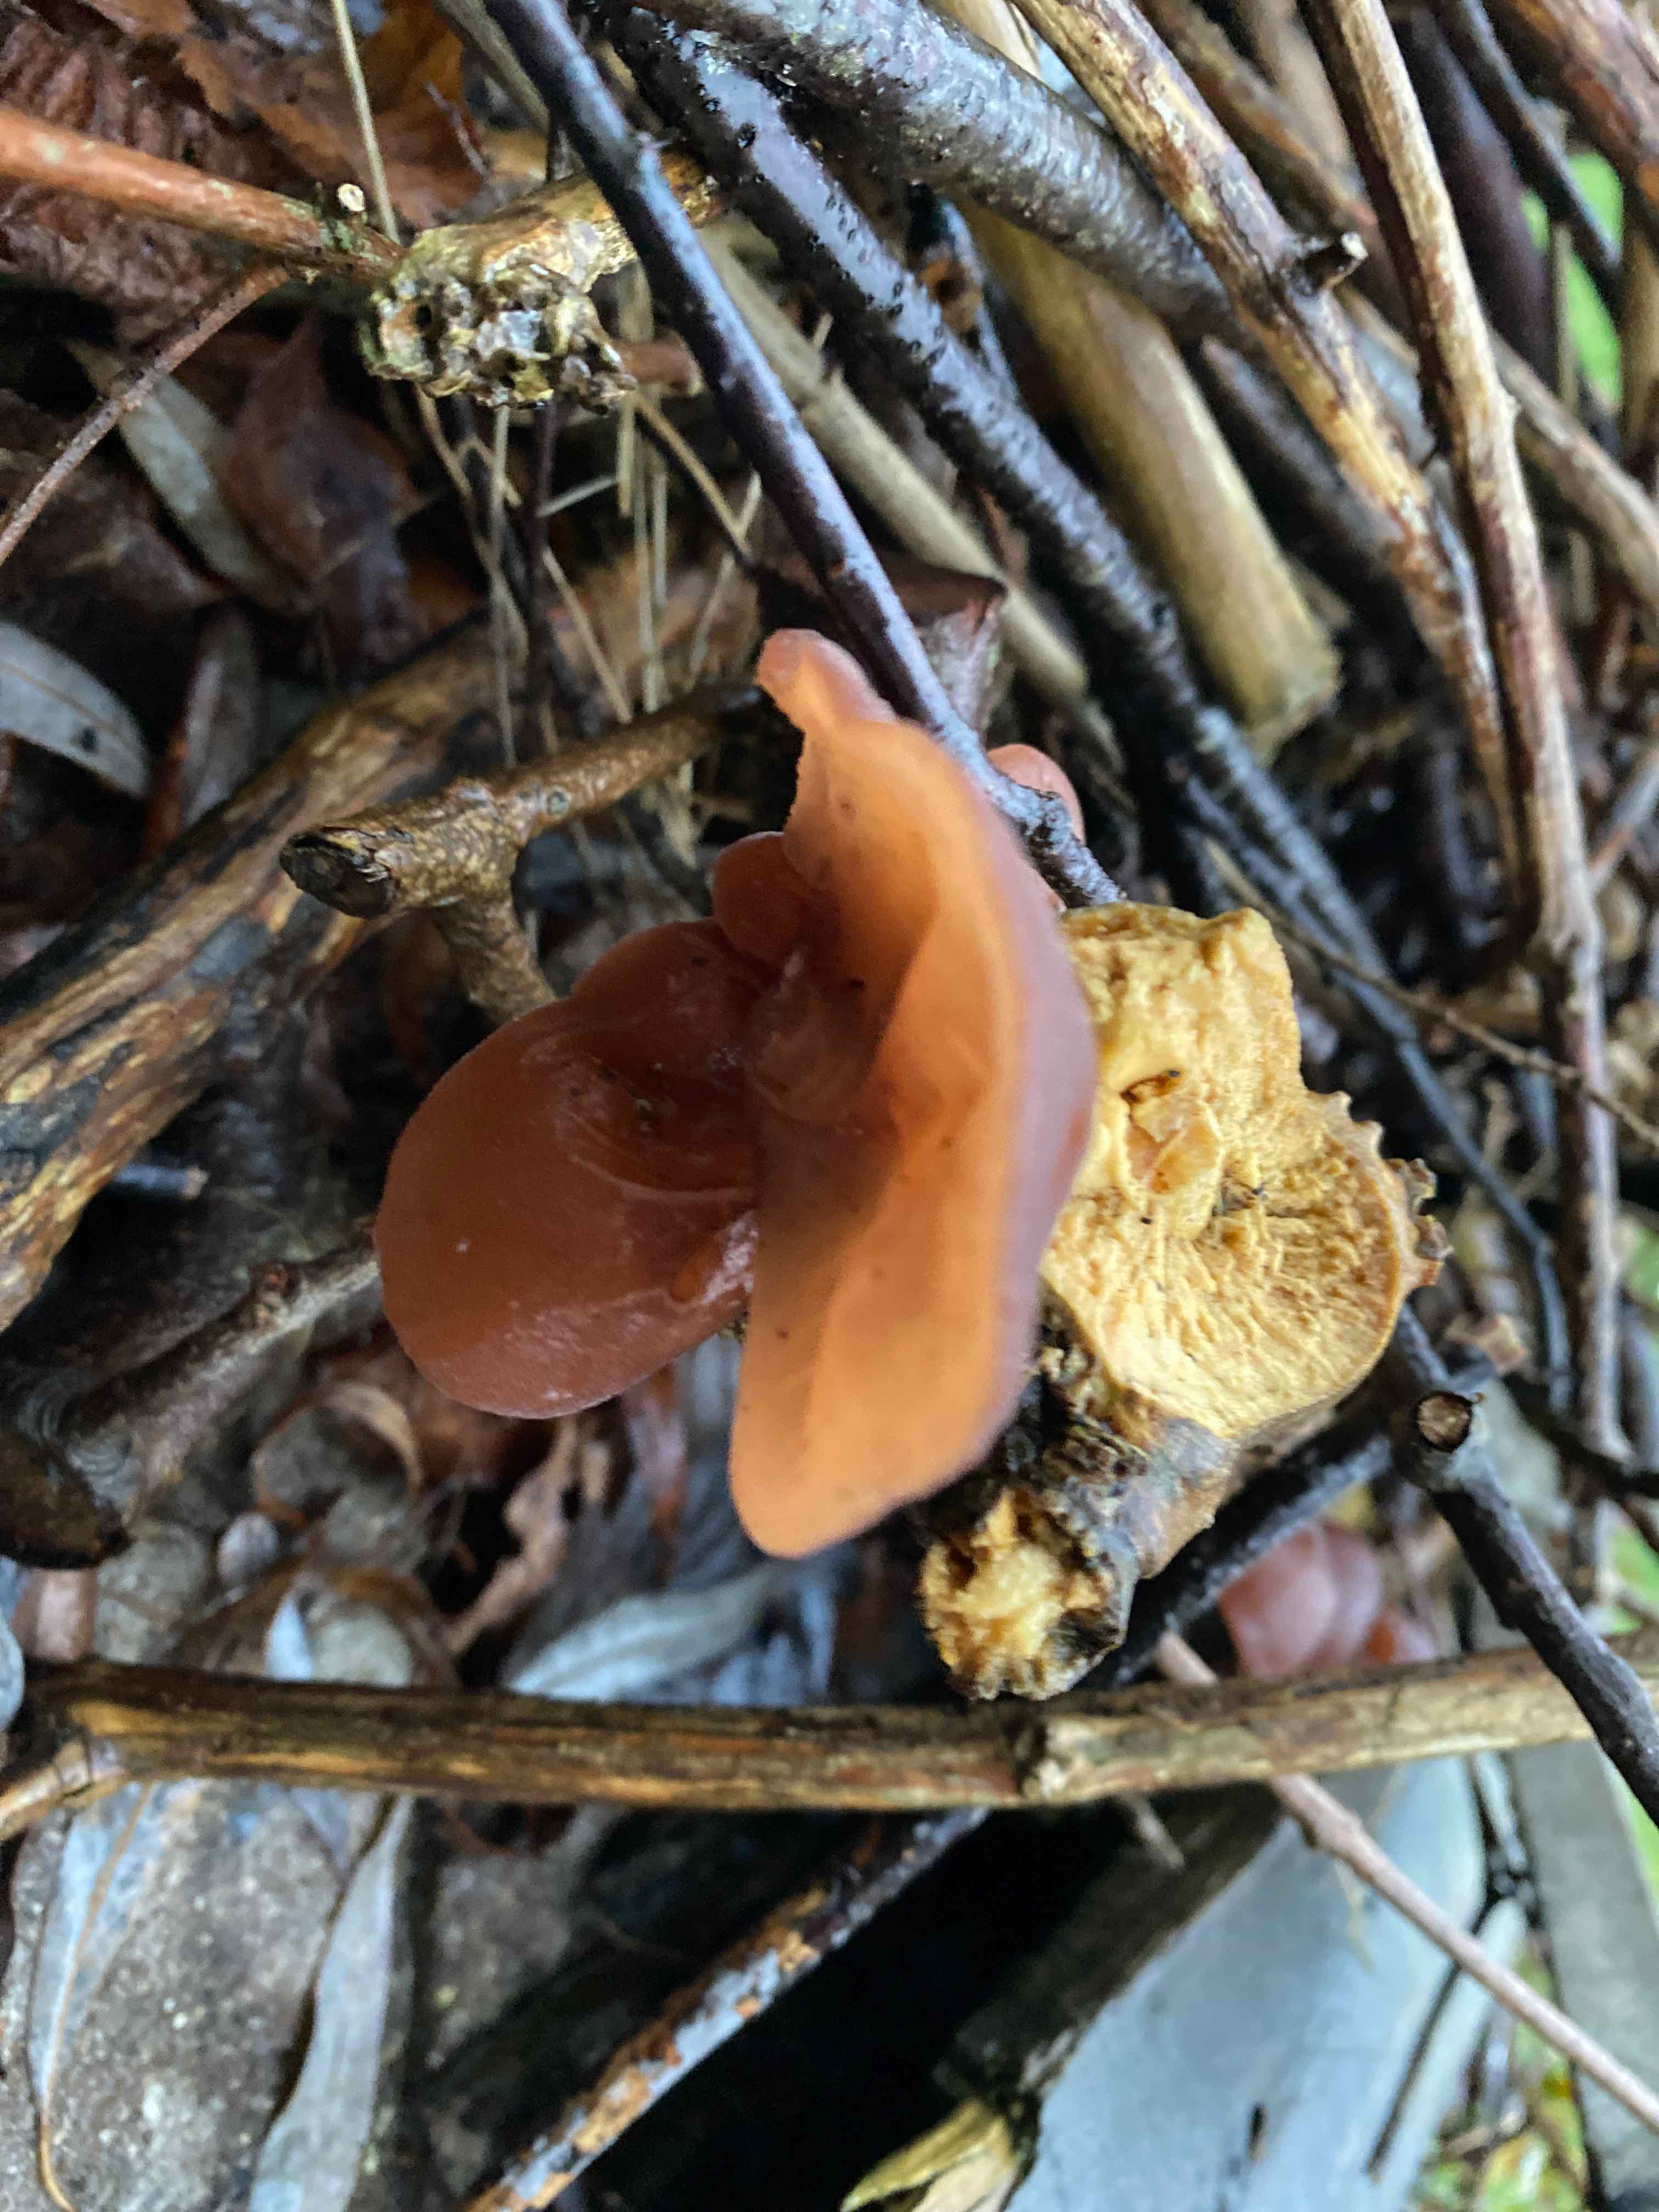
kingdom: Fungi
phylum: Basidiomycota
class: Agaricomycetes
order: Auriculariales
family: Auriculariaceae
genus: Auricularia
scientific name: Auricularia auricula-judae
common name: almindelig judasøre
